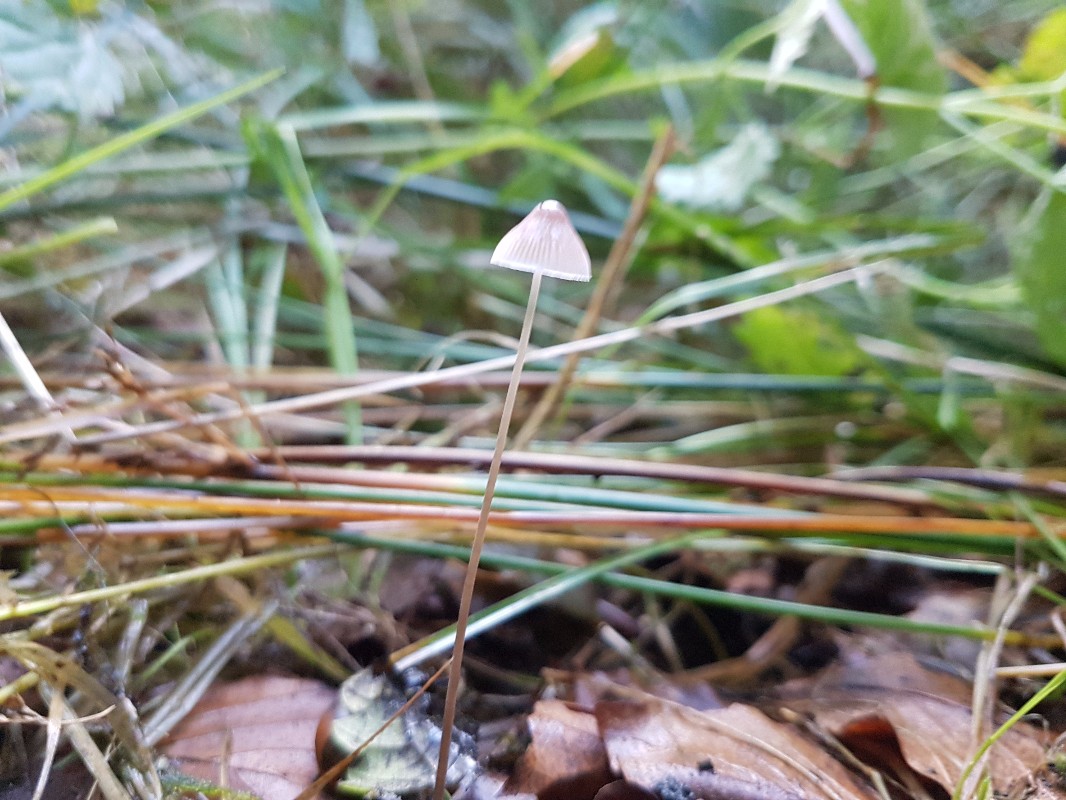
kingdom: Fungi
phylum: Basidiomycota
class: Agaricomycetes
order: Agaricales
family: Mycenaceae
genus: Mycena
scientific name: Mycena vitilis
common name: blankstokket huesvamp
